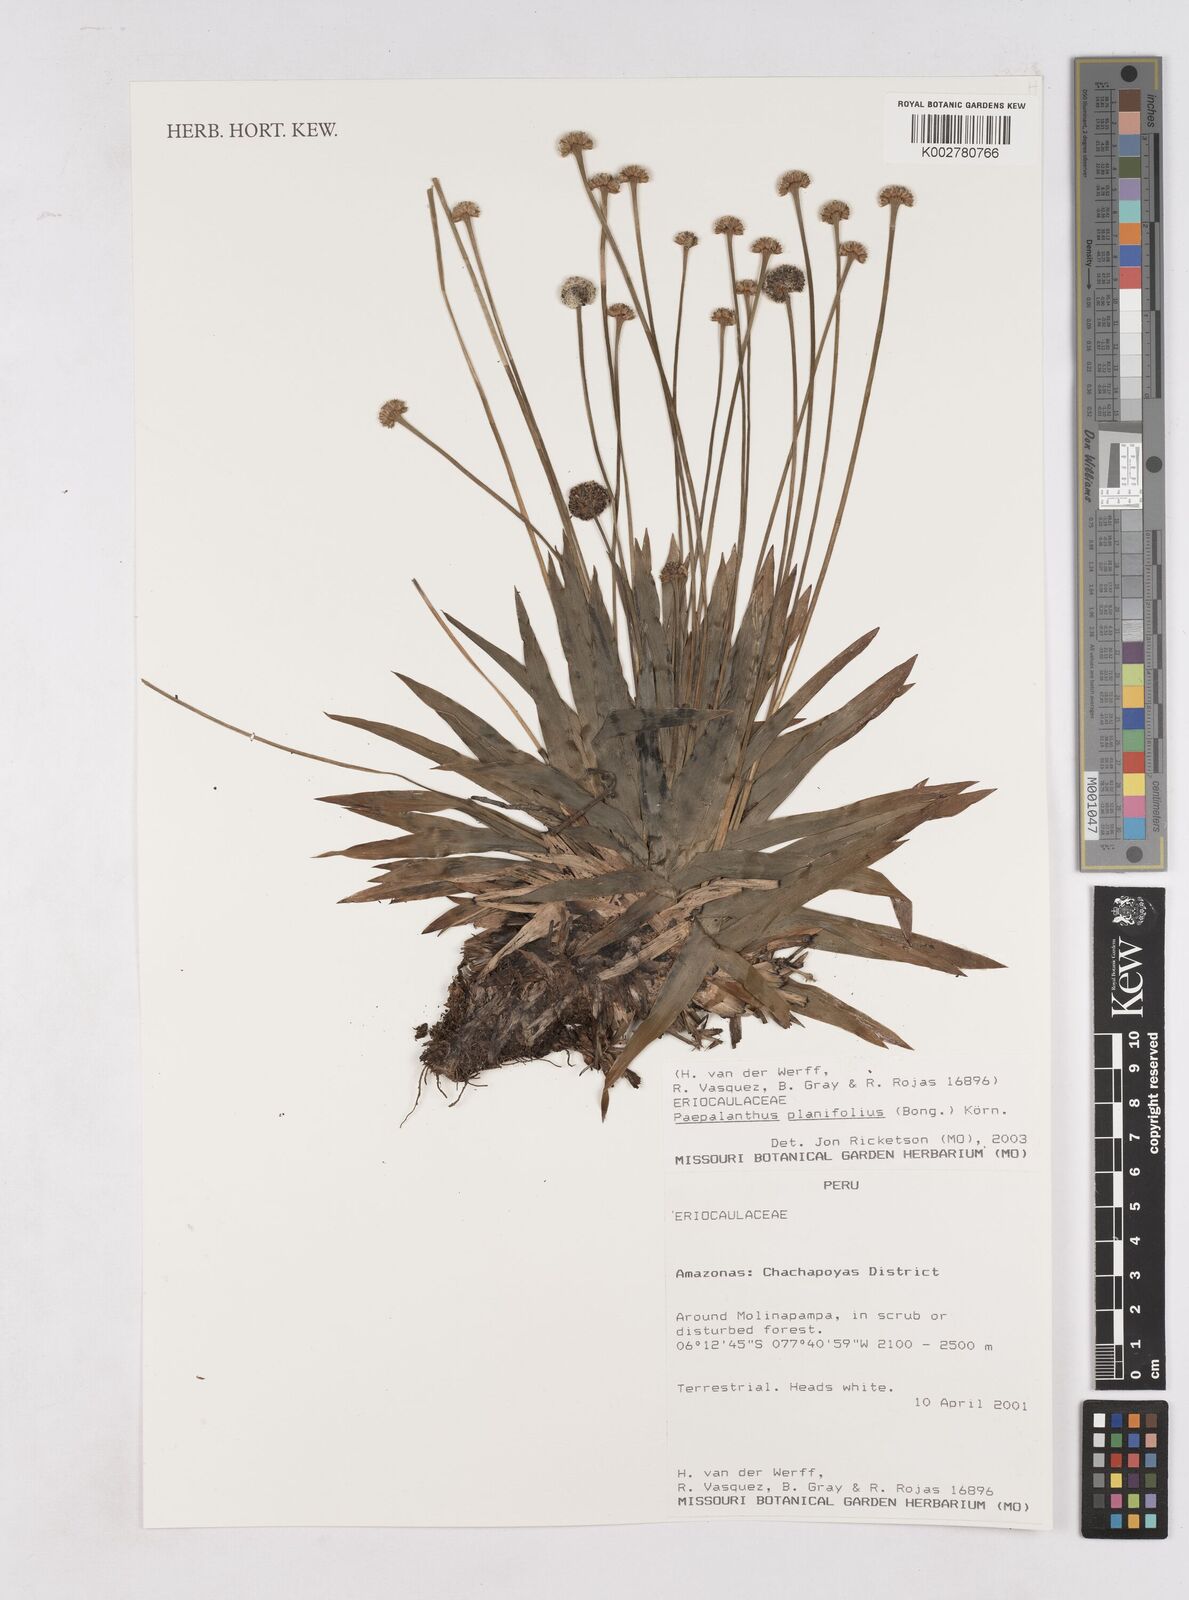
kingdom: Plantae
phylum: Tracheophyta
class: Liliopsida
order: Poales
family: Eriocaulaceae
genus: Paepalanthus
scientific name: Paepalanthus planifolius
